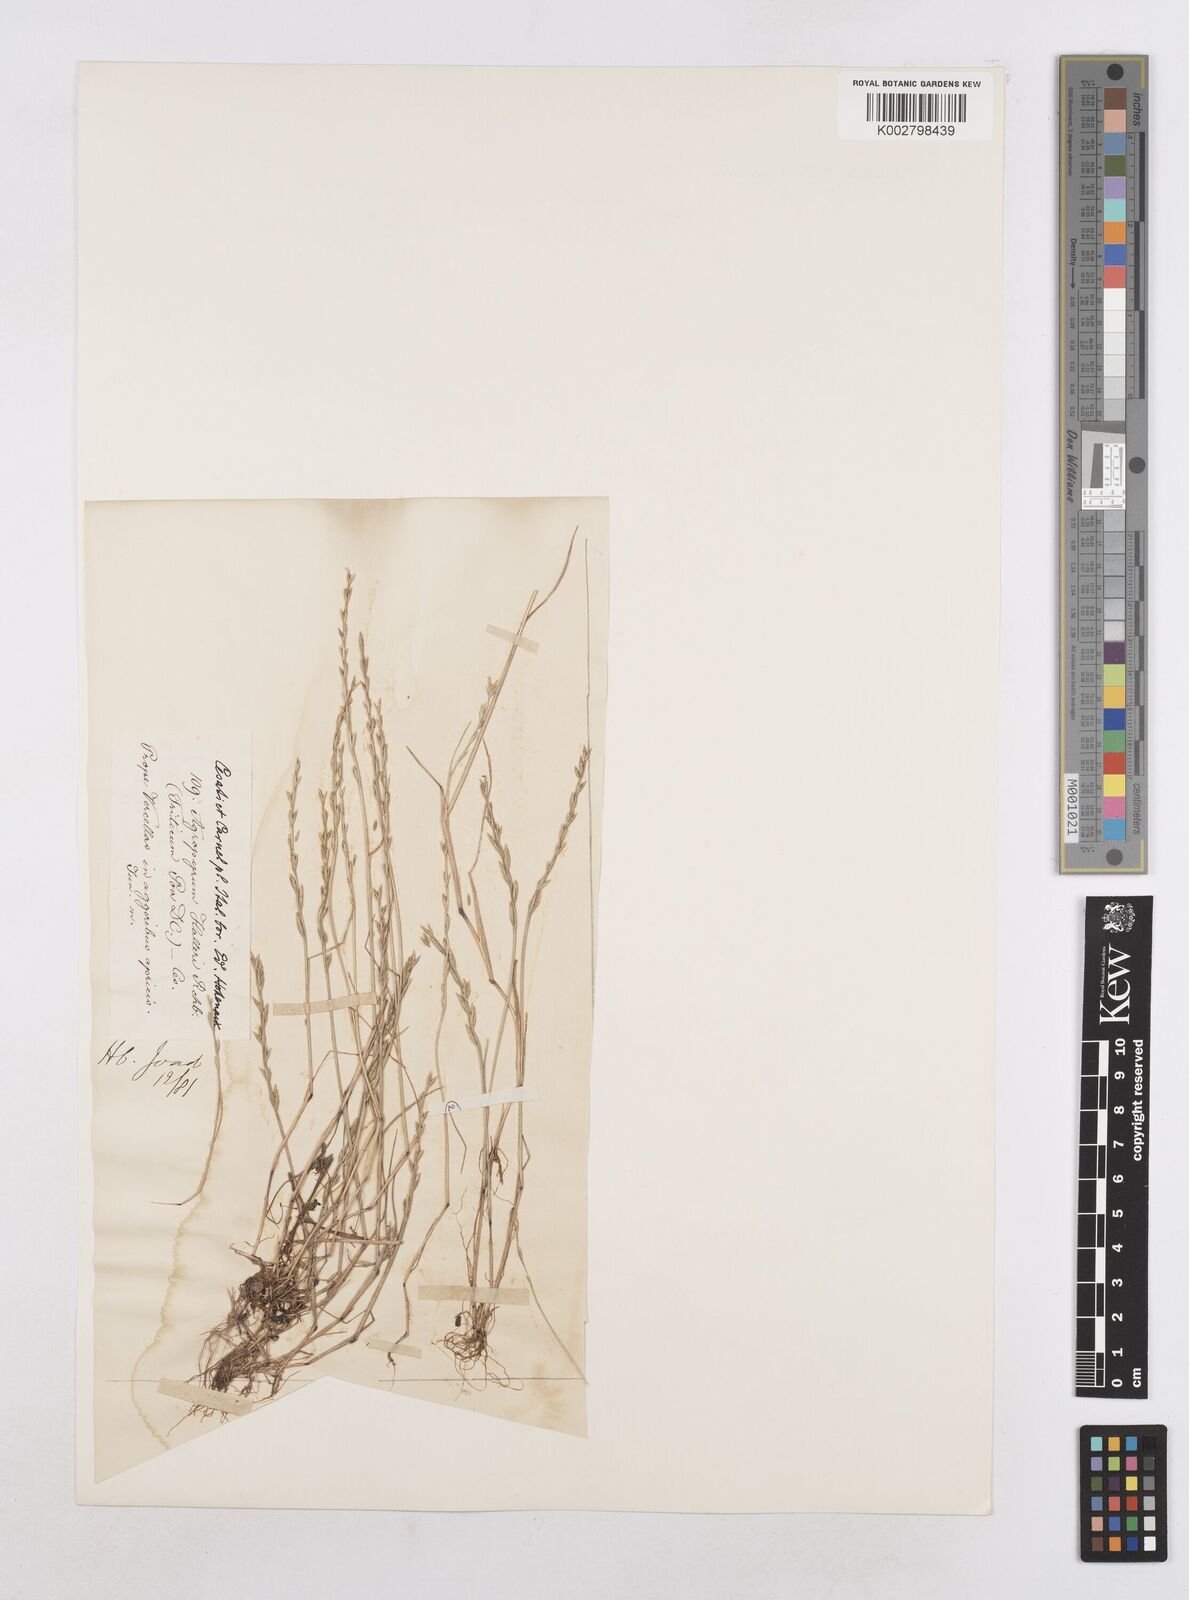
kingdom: Plantae
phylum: Tracheophyta
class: Liliopsida
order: Poales
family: Poaceae
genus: Festuca
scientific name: Festuca lachenalii
